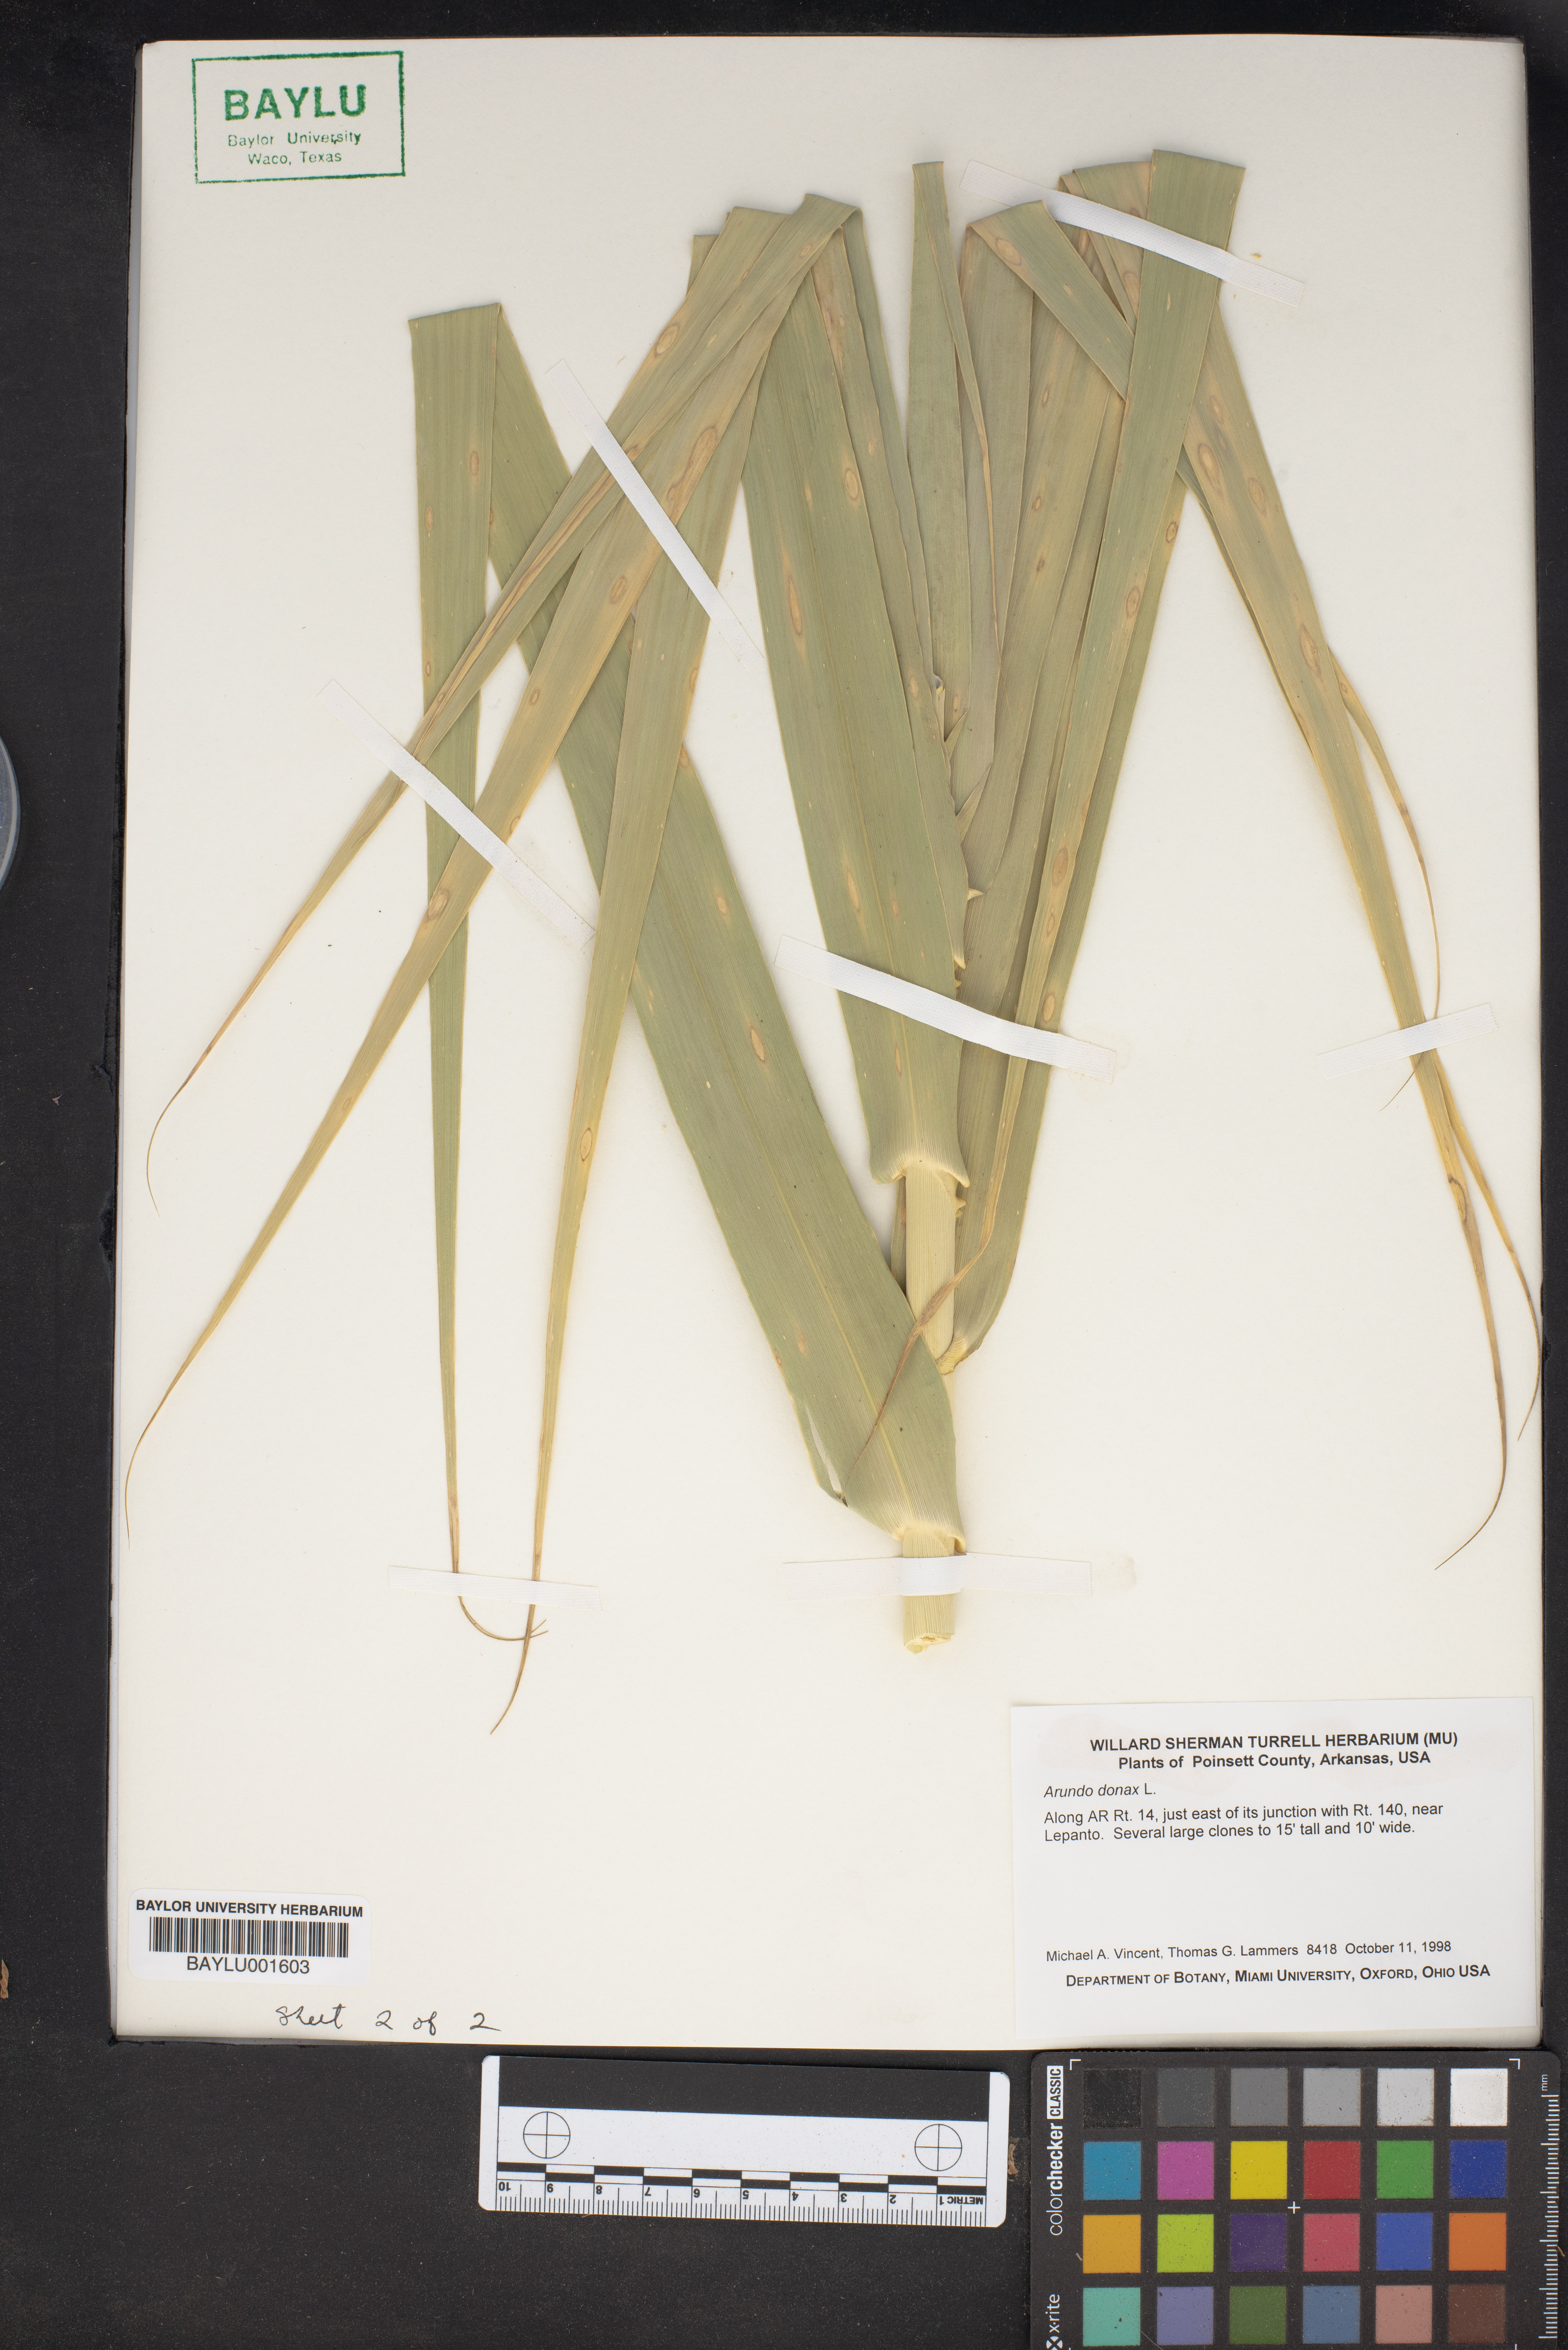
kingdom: Plantae
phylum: Tracheophyta
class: Liliopsida
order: Poales
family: Poaceae
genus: Arundo
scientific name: Arundo donax
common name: Giant reed
